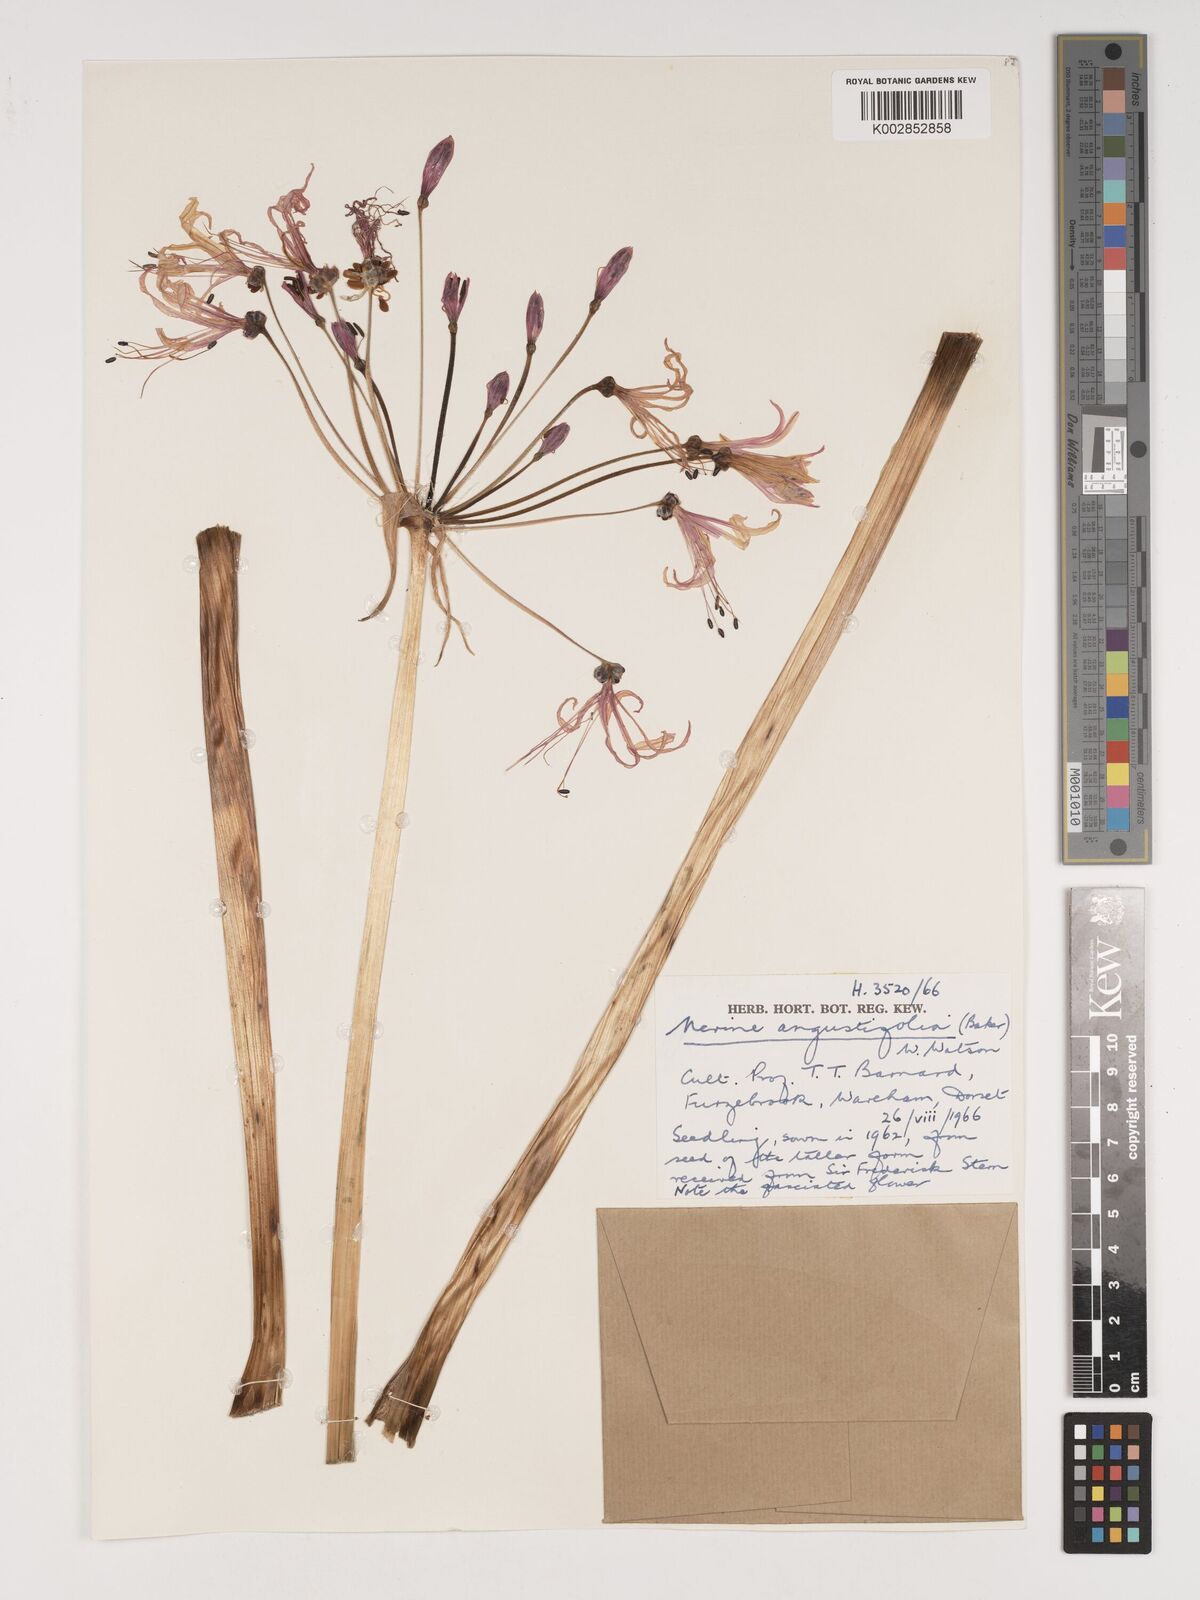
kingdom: Plantae
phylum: Tracheophyta
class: Liliopsida
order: Asparagales
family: Amaryllidaceae
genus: Nerine
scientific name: Nerine angustifolia
